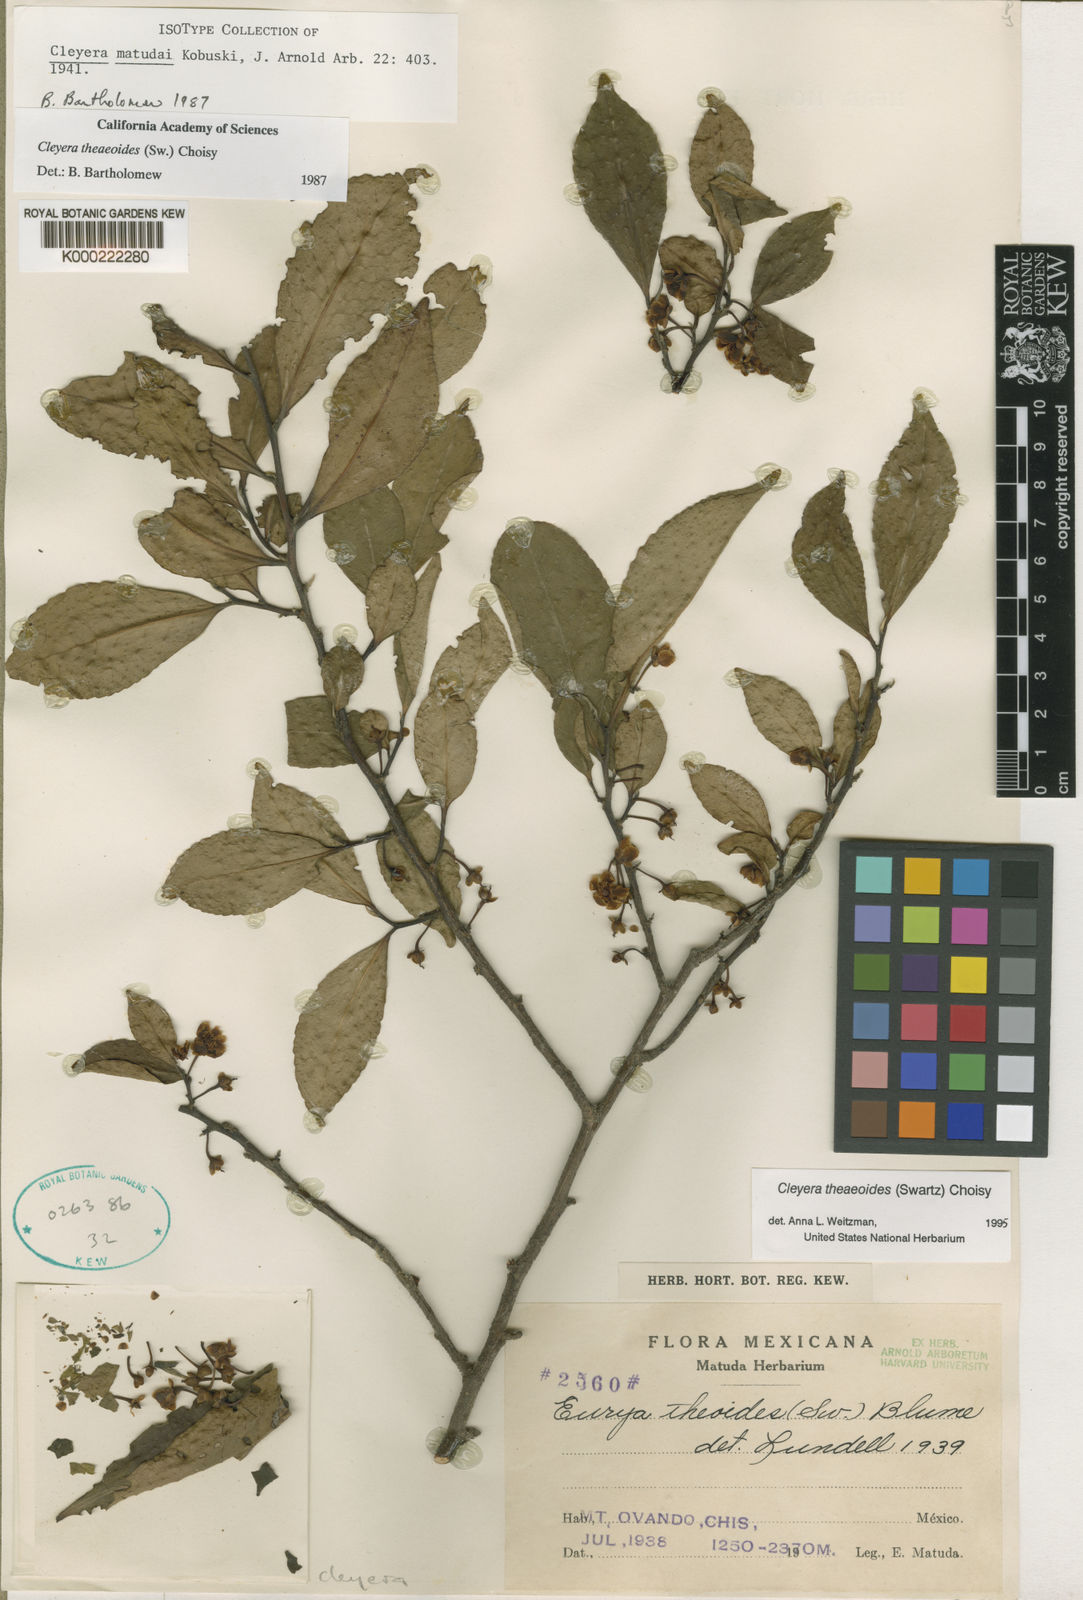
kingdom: Plantae
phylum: Tracheophyta
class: Magnoliopsida
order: Ericales
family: Pentaphylacaceae
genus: Cleyera
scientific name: Cleyera theaeoides
